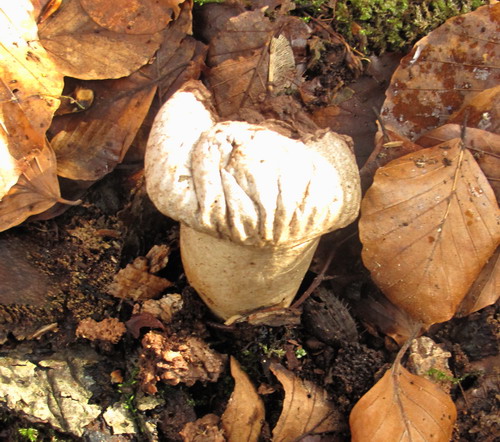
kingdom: Fungi
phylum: Basidiomycota
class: Agaricomycetes
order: Agaricales
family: Lycoperdaceae
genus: Lycoperdon
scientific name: Lycoperdon excipuliforme
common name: højstokket støvbold
